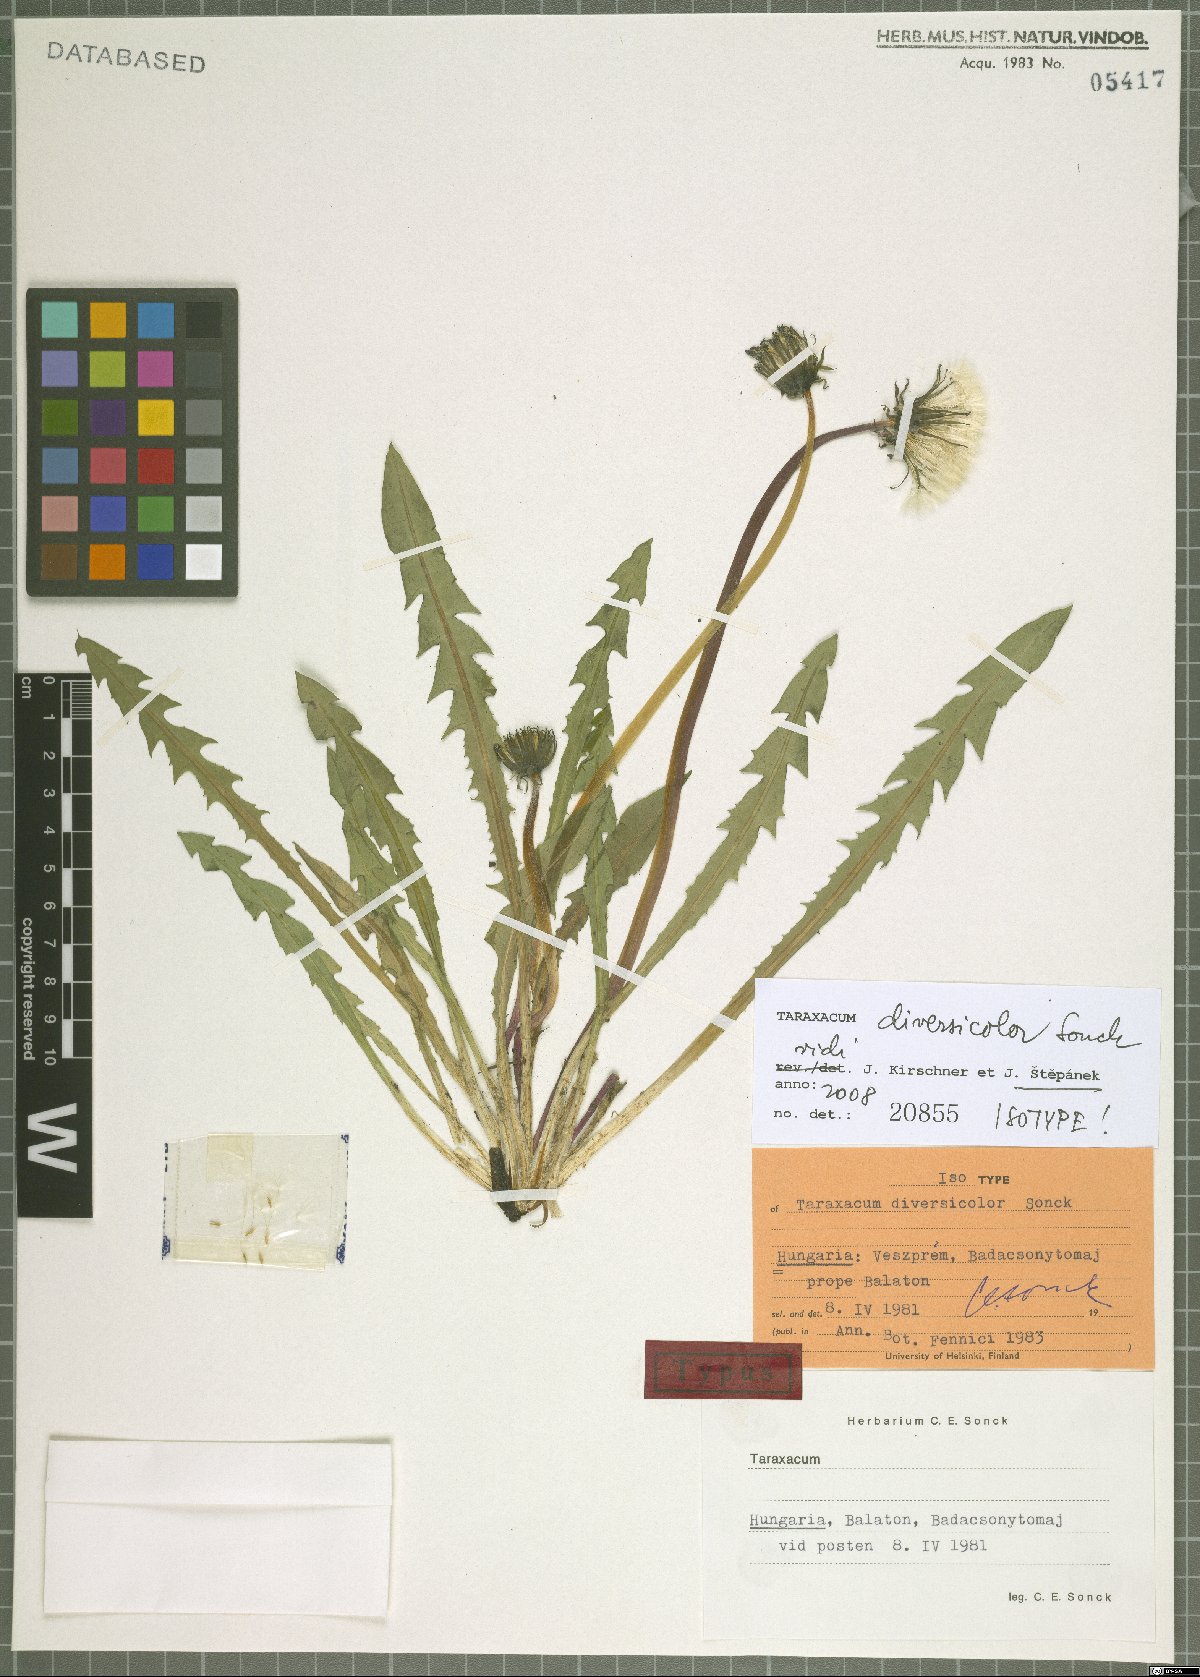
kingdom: Plantae
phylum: Tracheophyta
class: Magnoliopsida
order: Asterales
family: Asteraceae
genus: Taraxacum
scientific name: Taraxacum diversicolor
